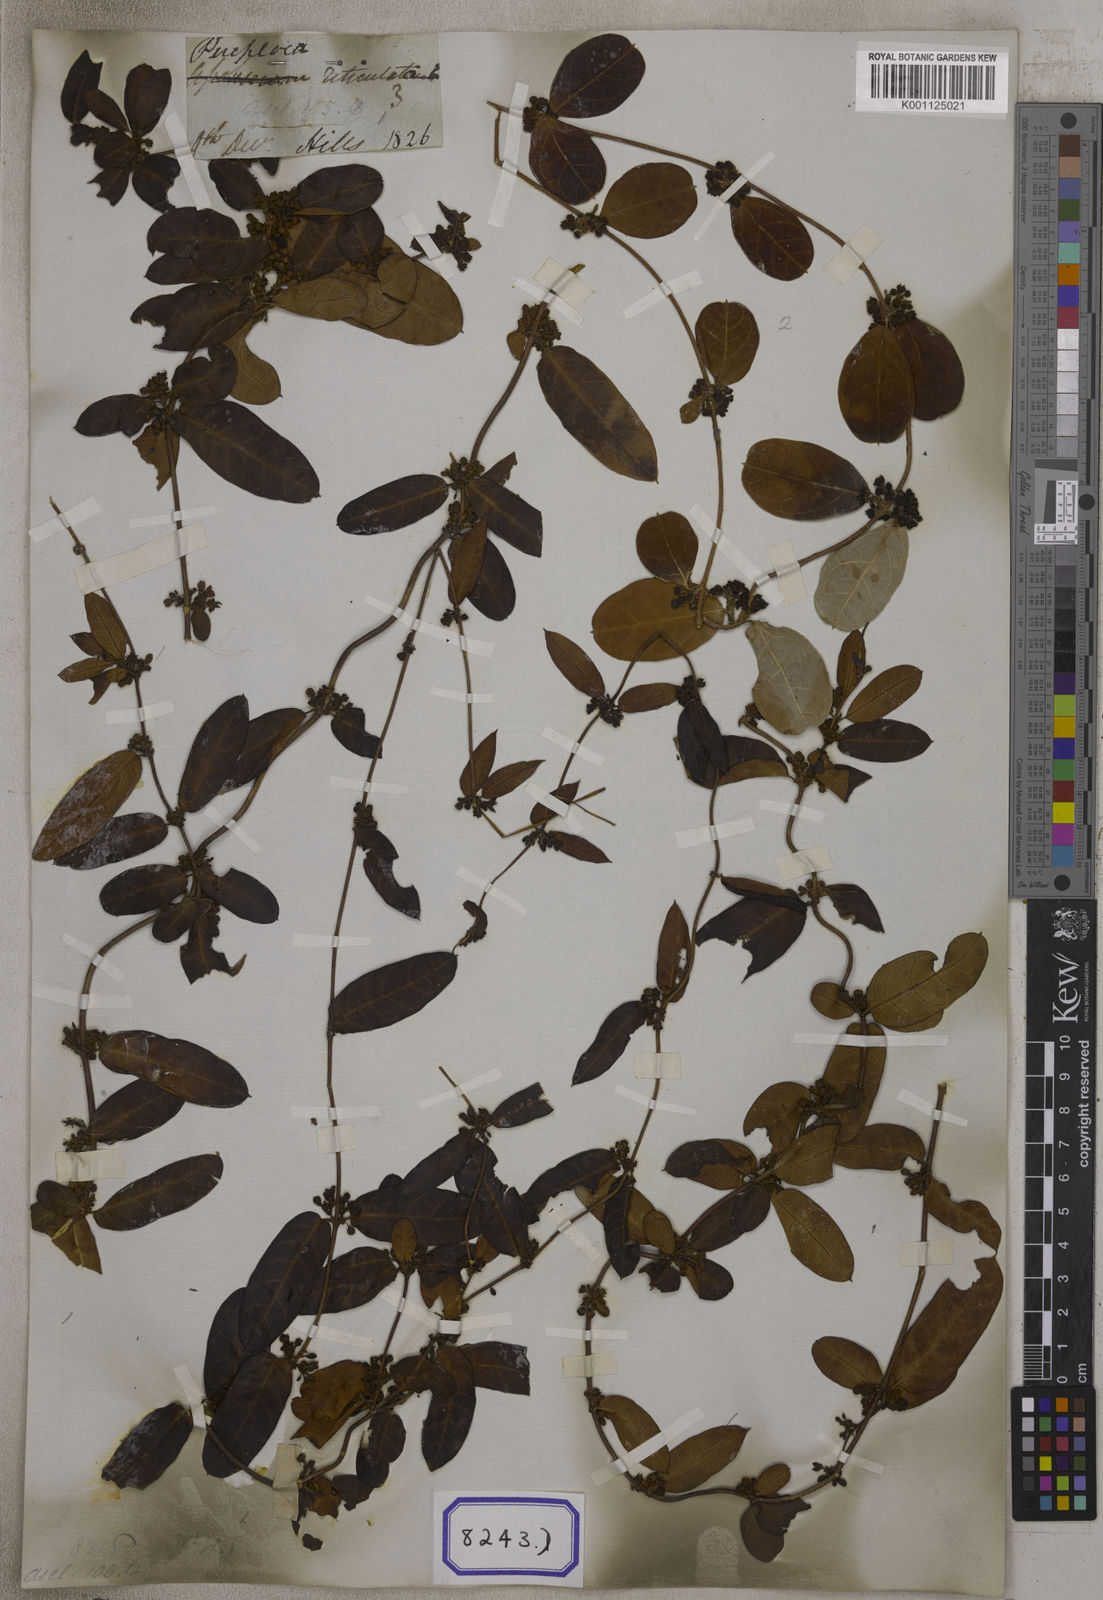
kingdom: Plantae
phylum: Tracheophyta
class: Magnoliopsida
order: Gentianales
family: Apocynaceae
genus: Hemidesmus
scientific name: Hemidesmus indicus
